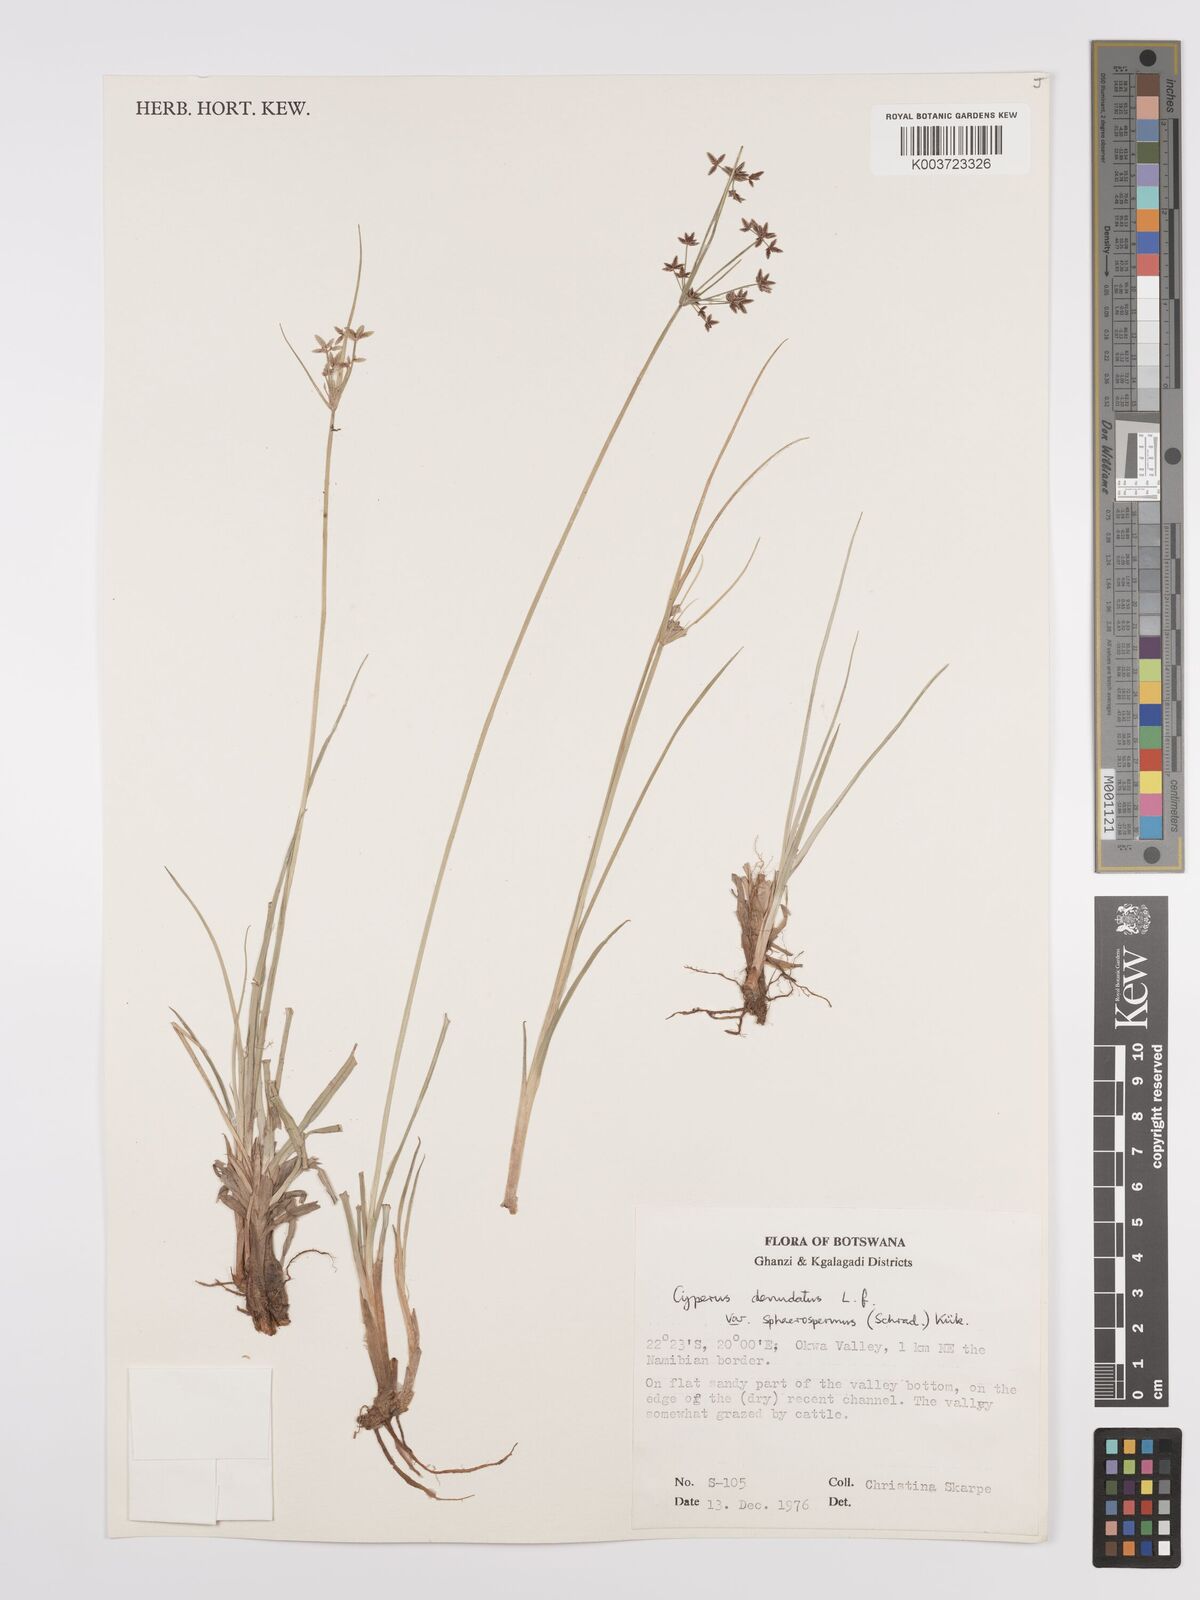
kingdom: Plantae
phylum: Tracheophyta
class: Liliopsida
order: Poales
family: Cyperaceae
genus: Cyperus
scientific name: Cyperus denudatus
